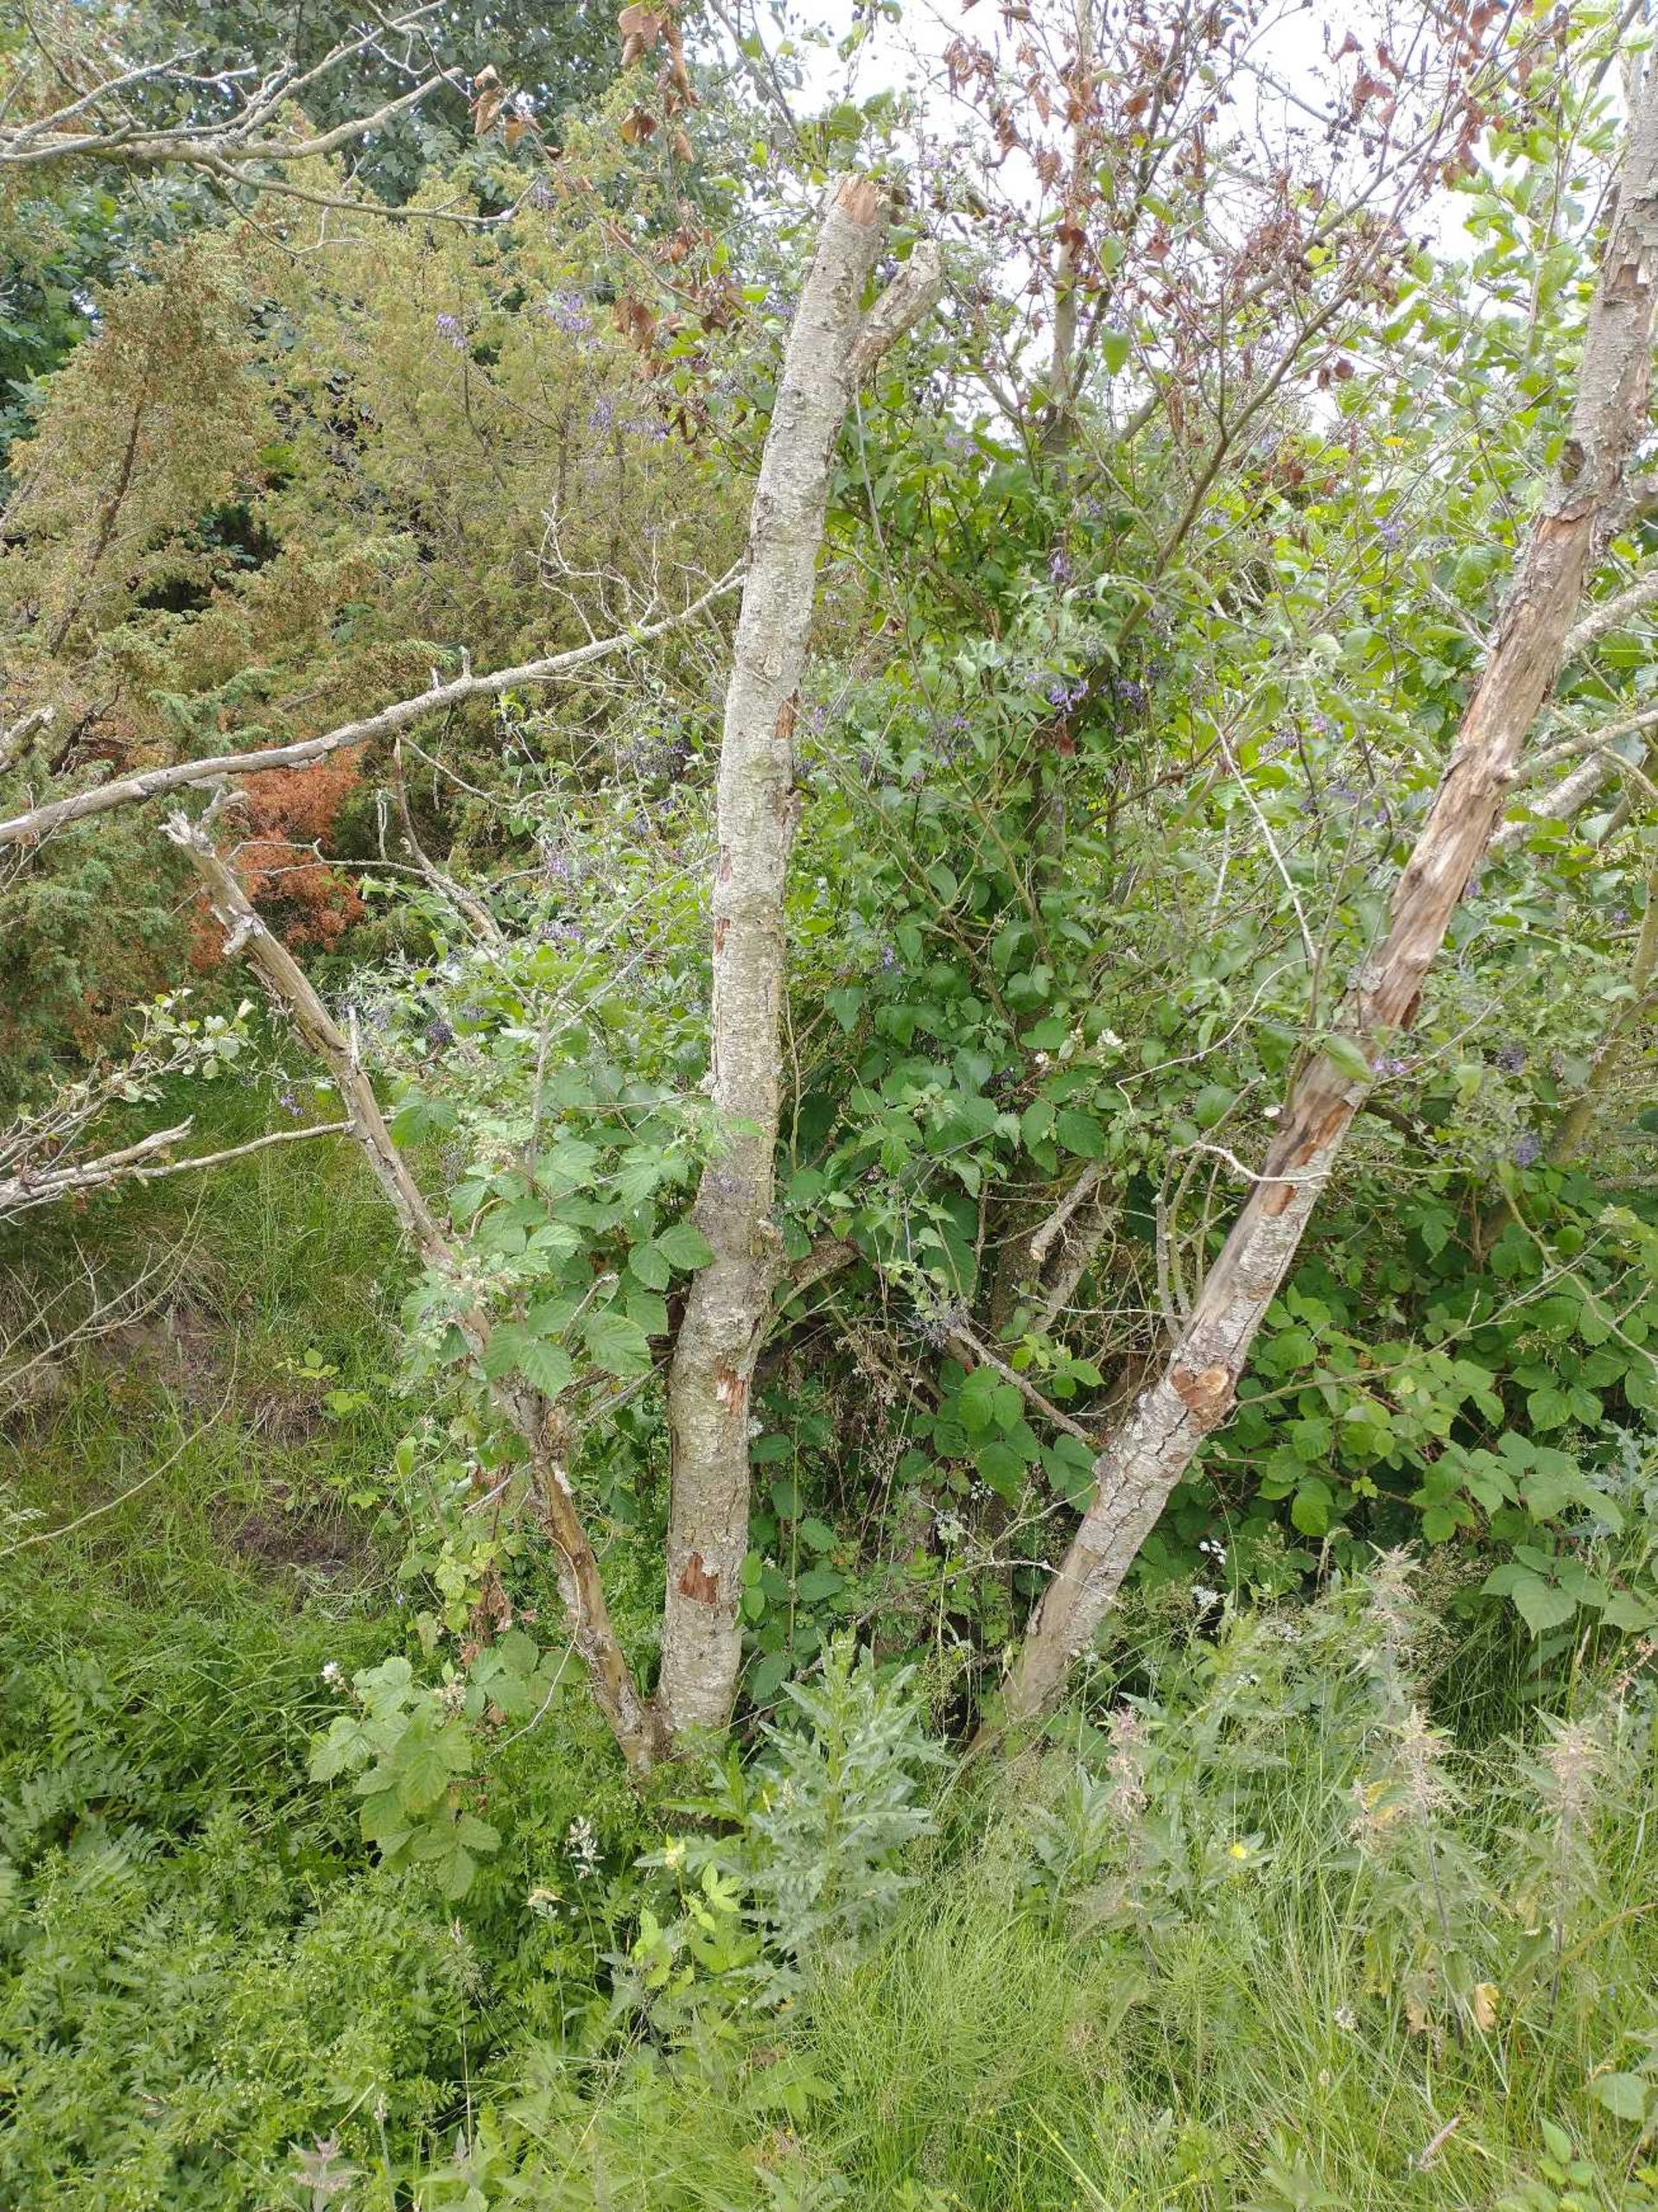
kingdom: Plantae
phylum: Tracheophyta
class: Magnoliopsida
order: Solanales
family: Solanaceae
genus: Solanum
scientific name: Solanum dulcamara
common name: Bittersød natskygge
